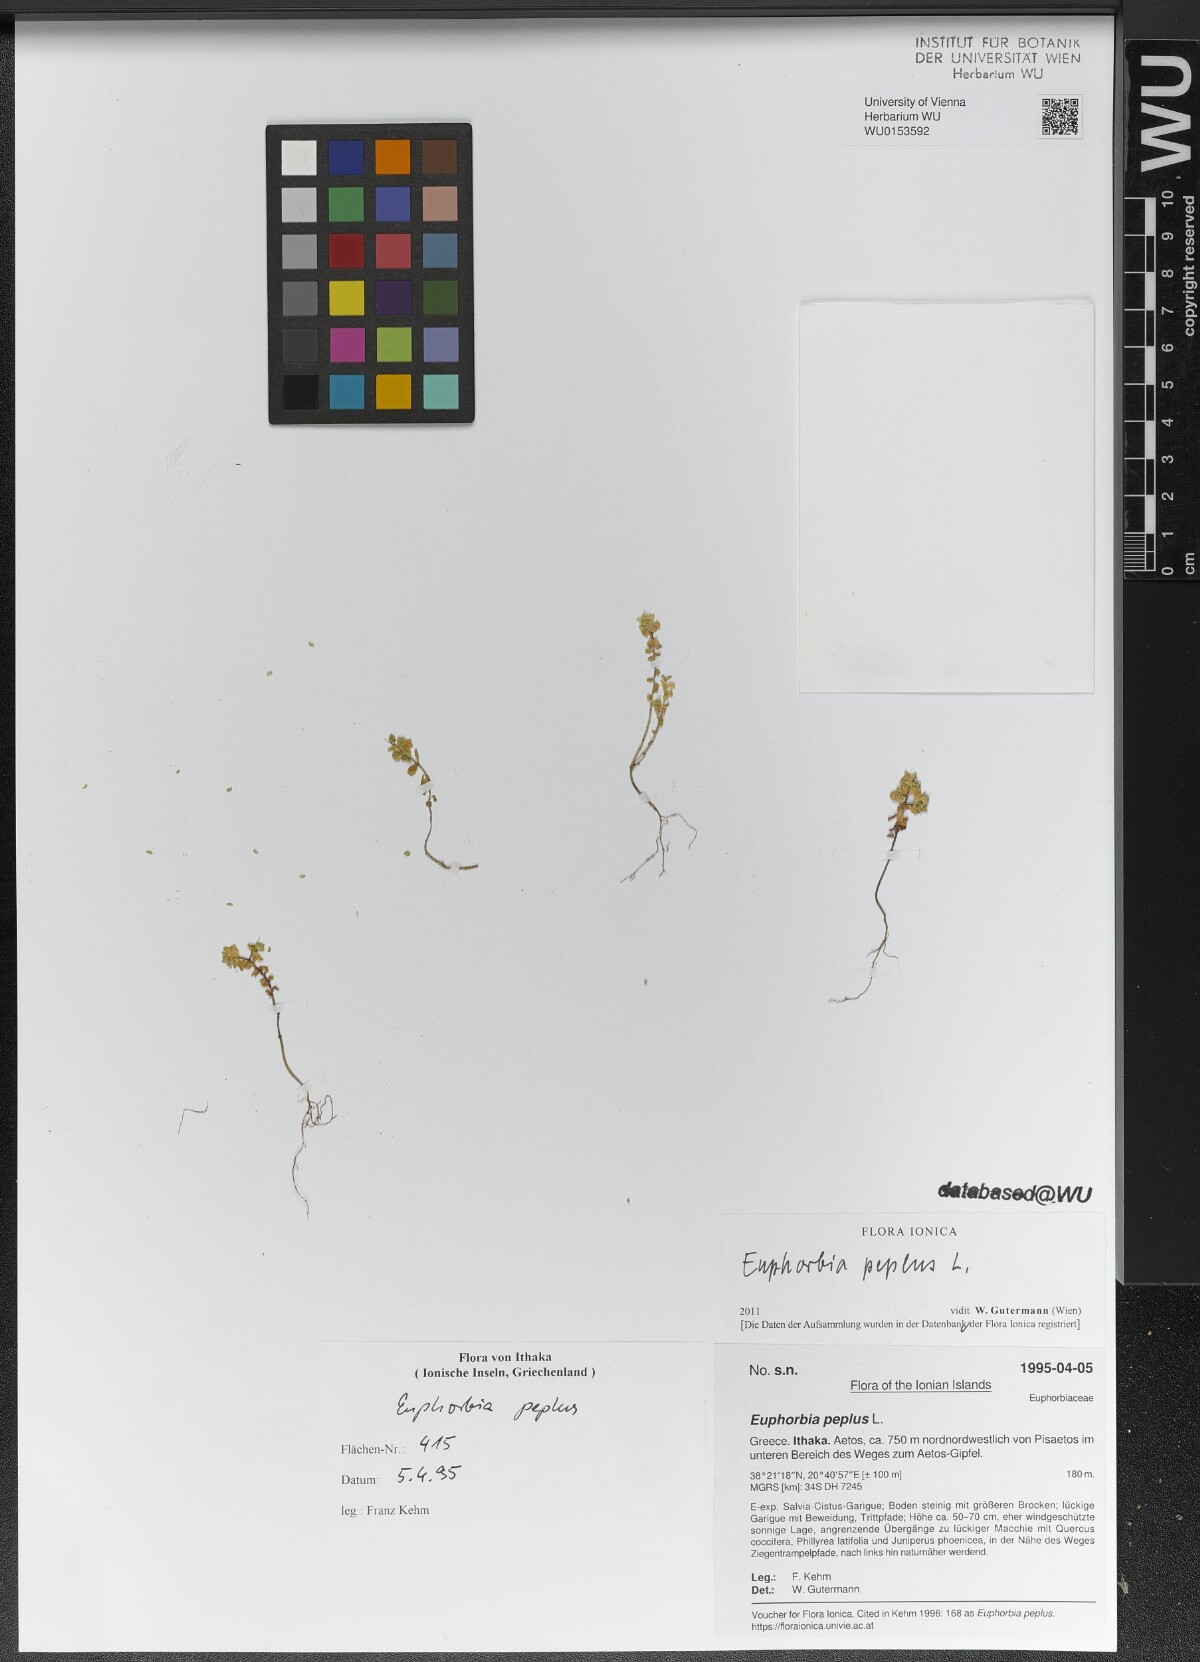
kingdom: Plantae
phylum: Tracheophyta
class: Magnoliopsida
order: Malpighiales
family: Euphorbiaceae
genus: Euphorbia
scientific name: Euphorbia peplus
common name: Petty spurge
